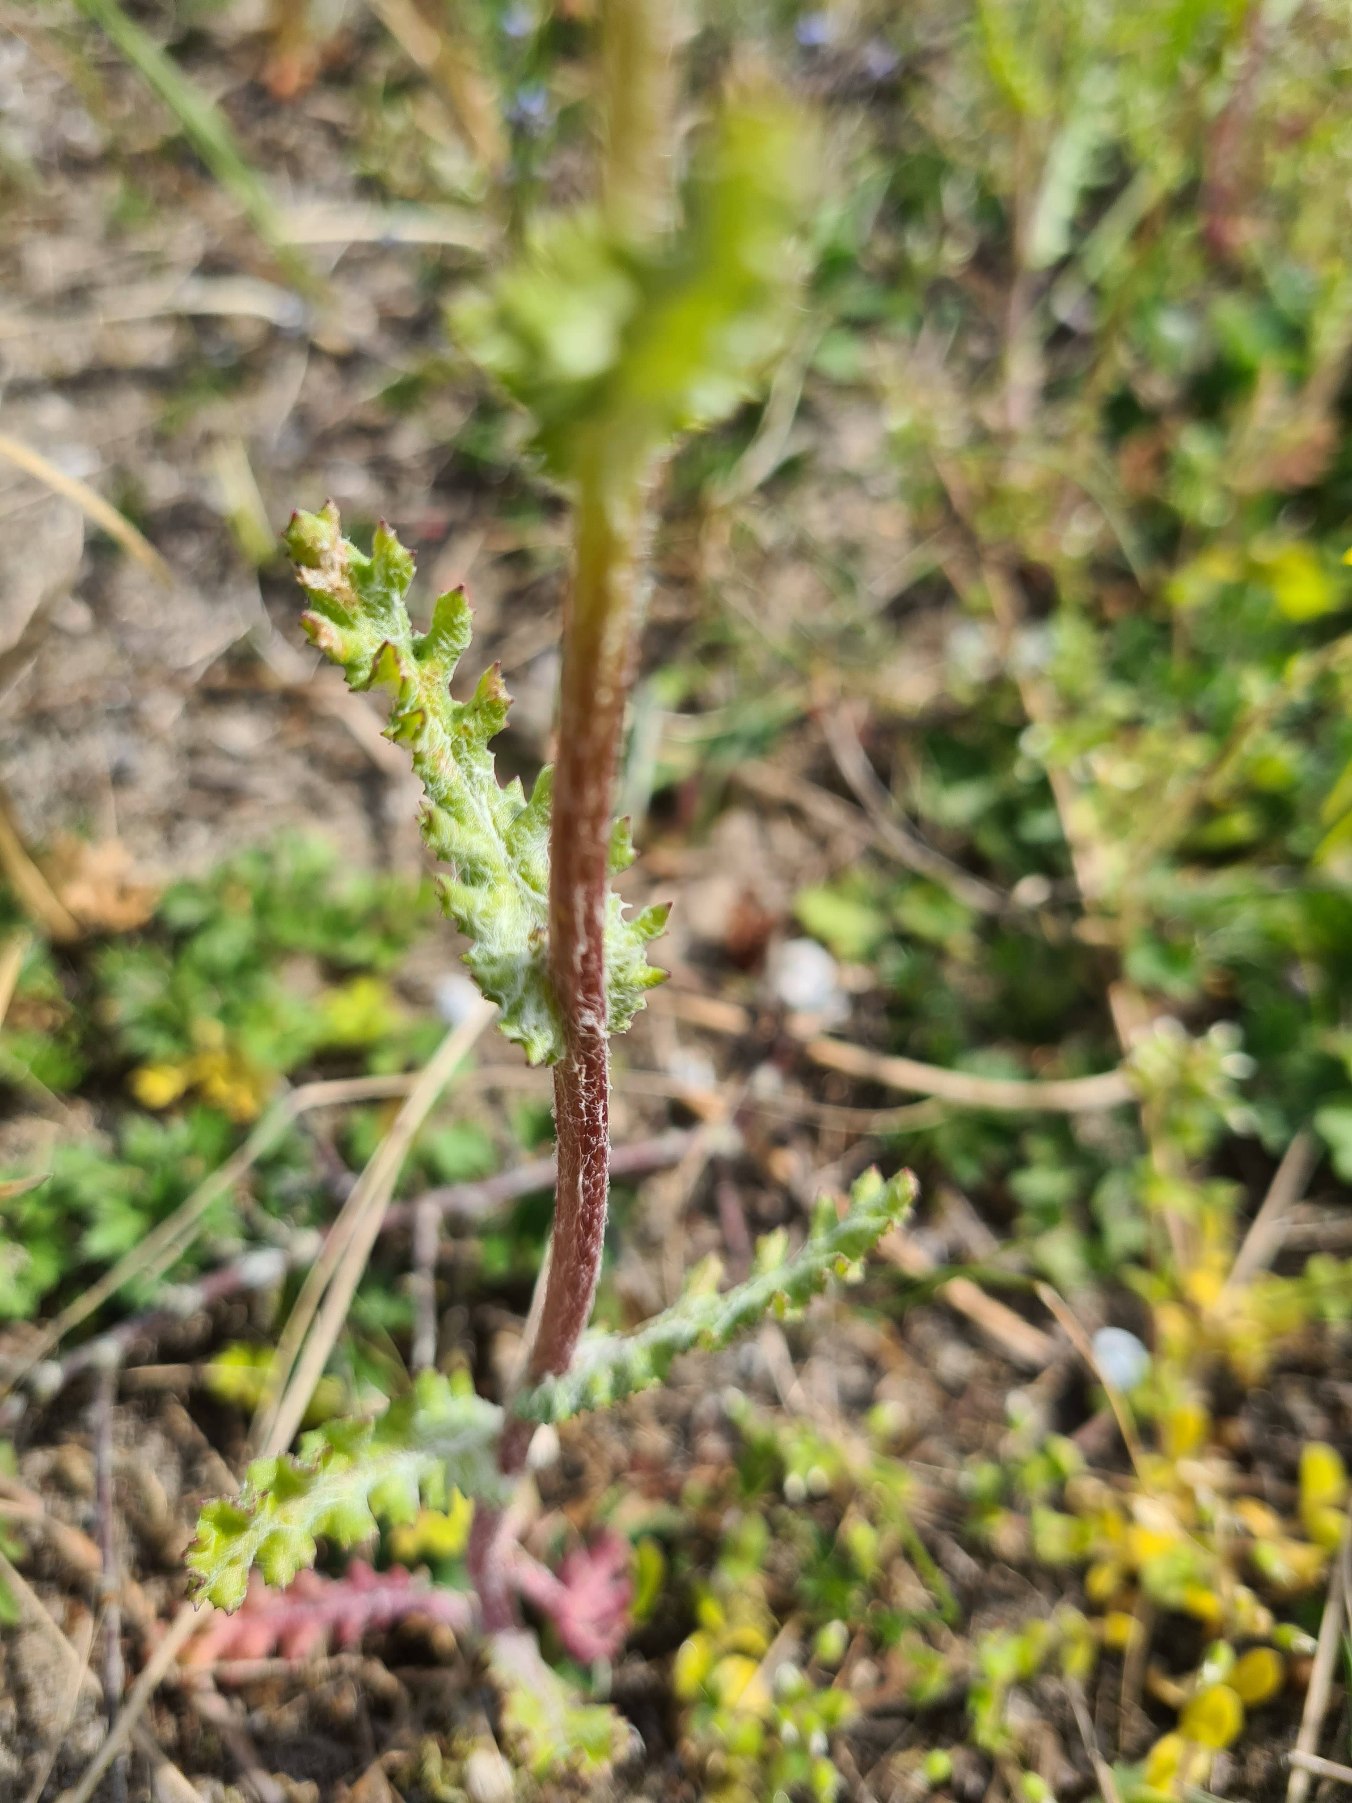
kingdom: Plantae
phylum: Tracheophyta
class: Magnoliopsida
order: Asterales
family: Asteraceae
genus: Senecio
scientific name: Senecio leucanthemifolius
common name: Vår-brandbæger
